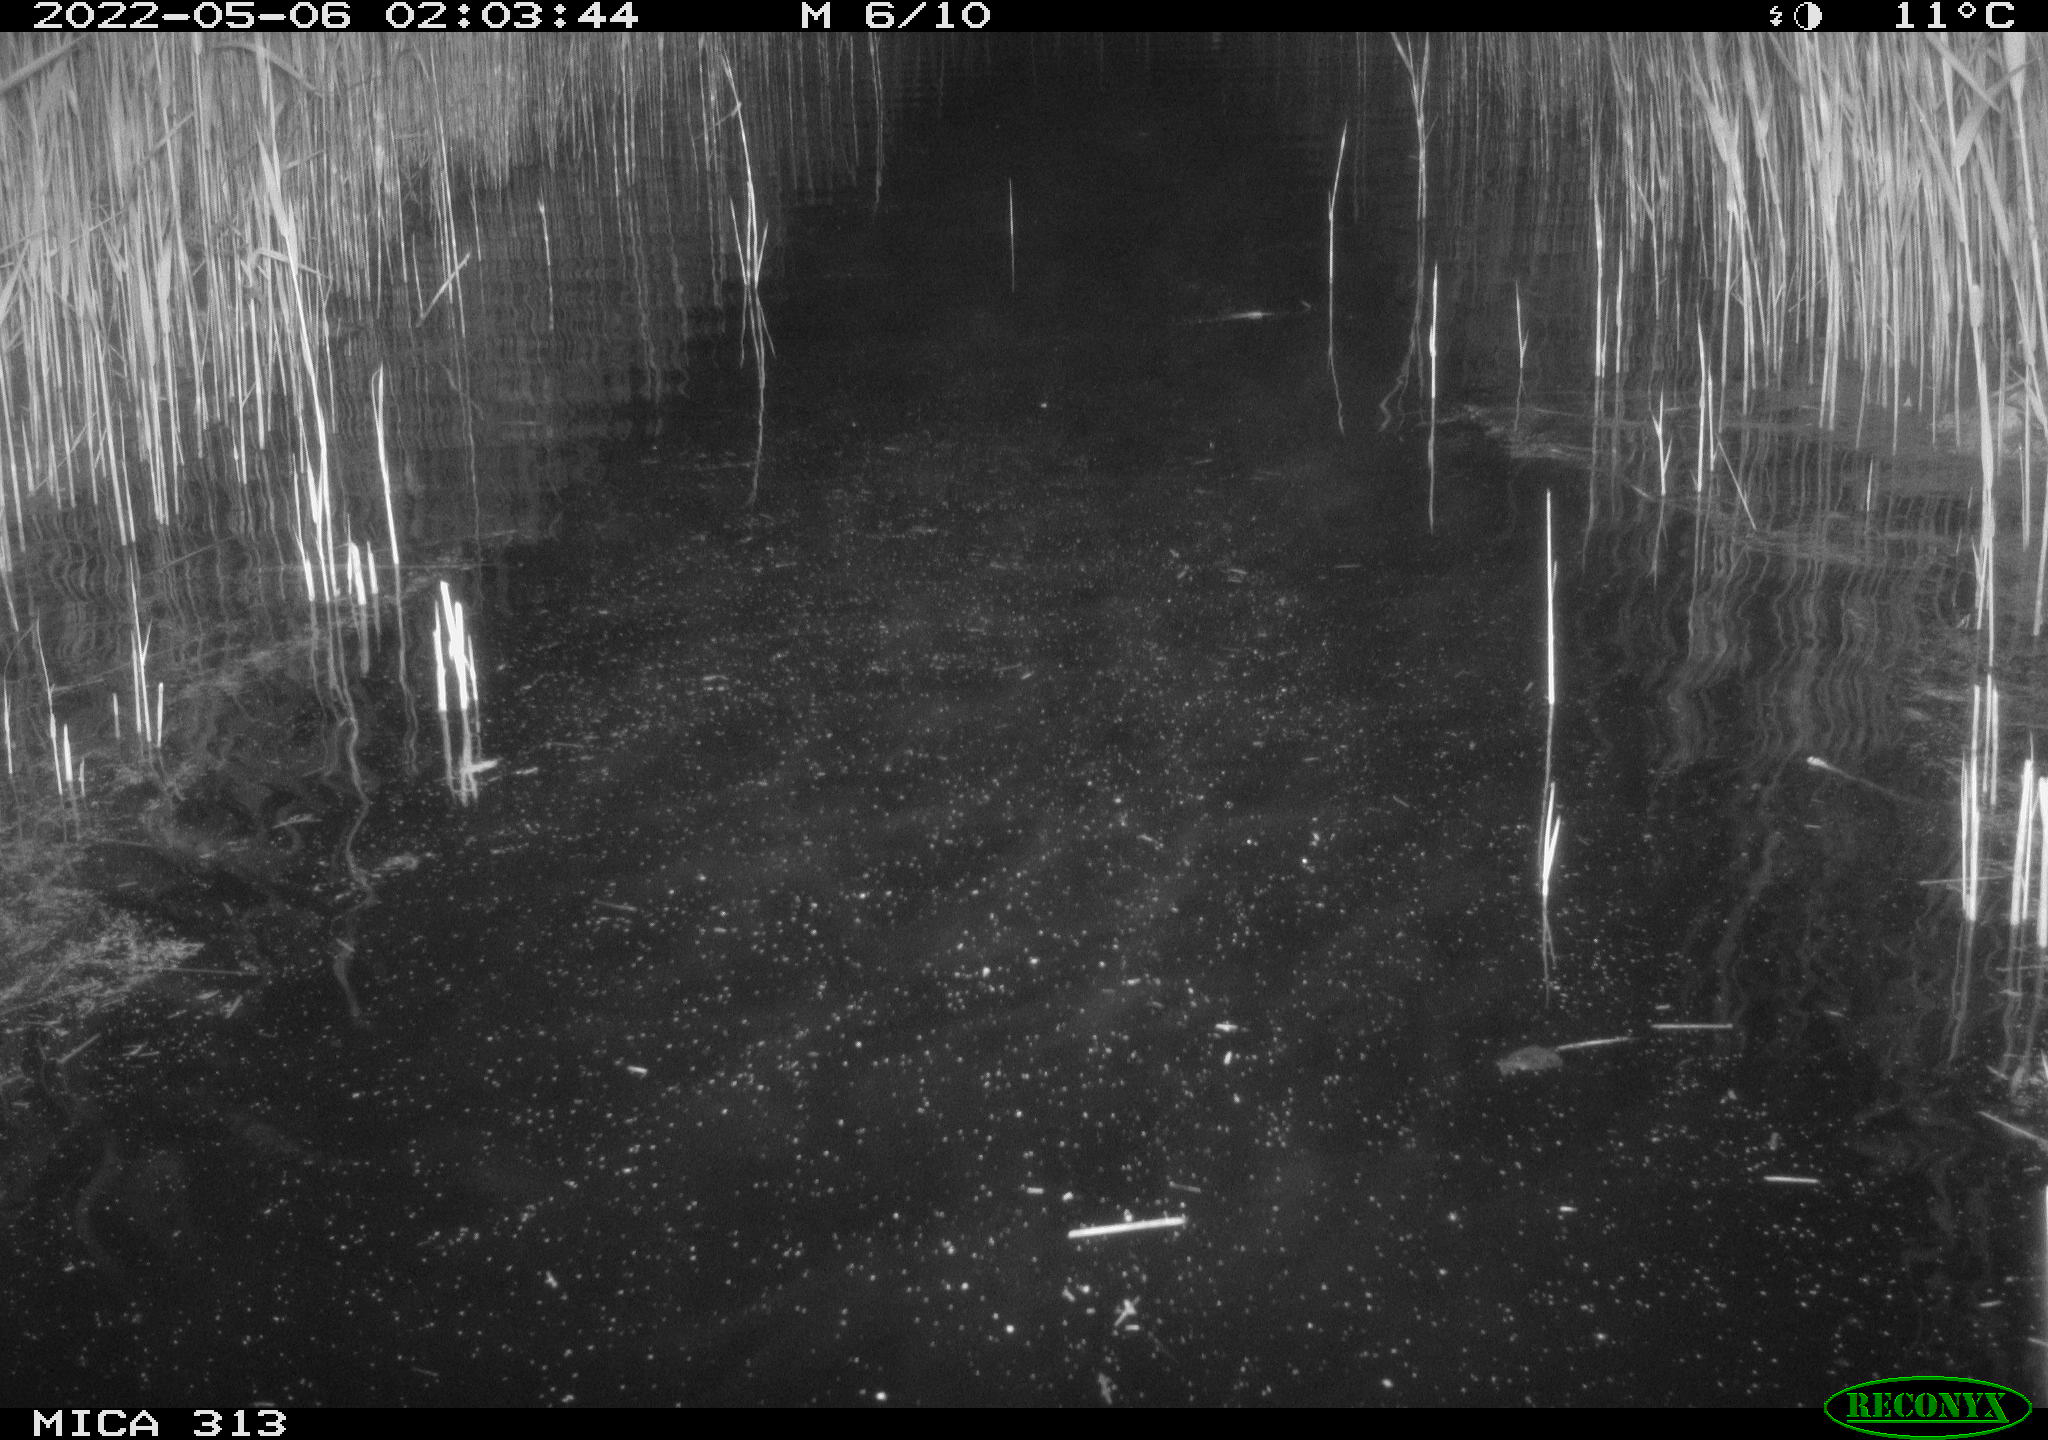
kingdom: Animalia
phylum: Chordata
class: Aves
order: Anseriformes
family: Anatidae
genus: Anas
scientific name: Anas platyrhynchos
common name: Mallard
